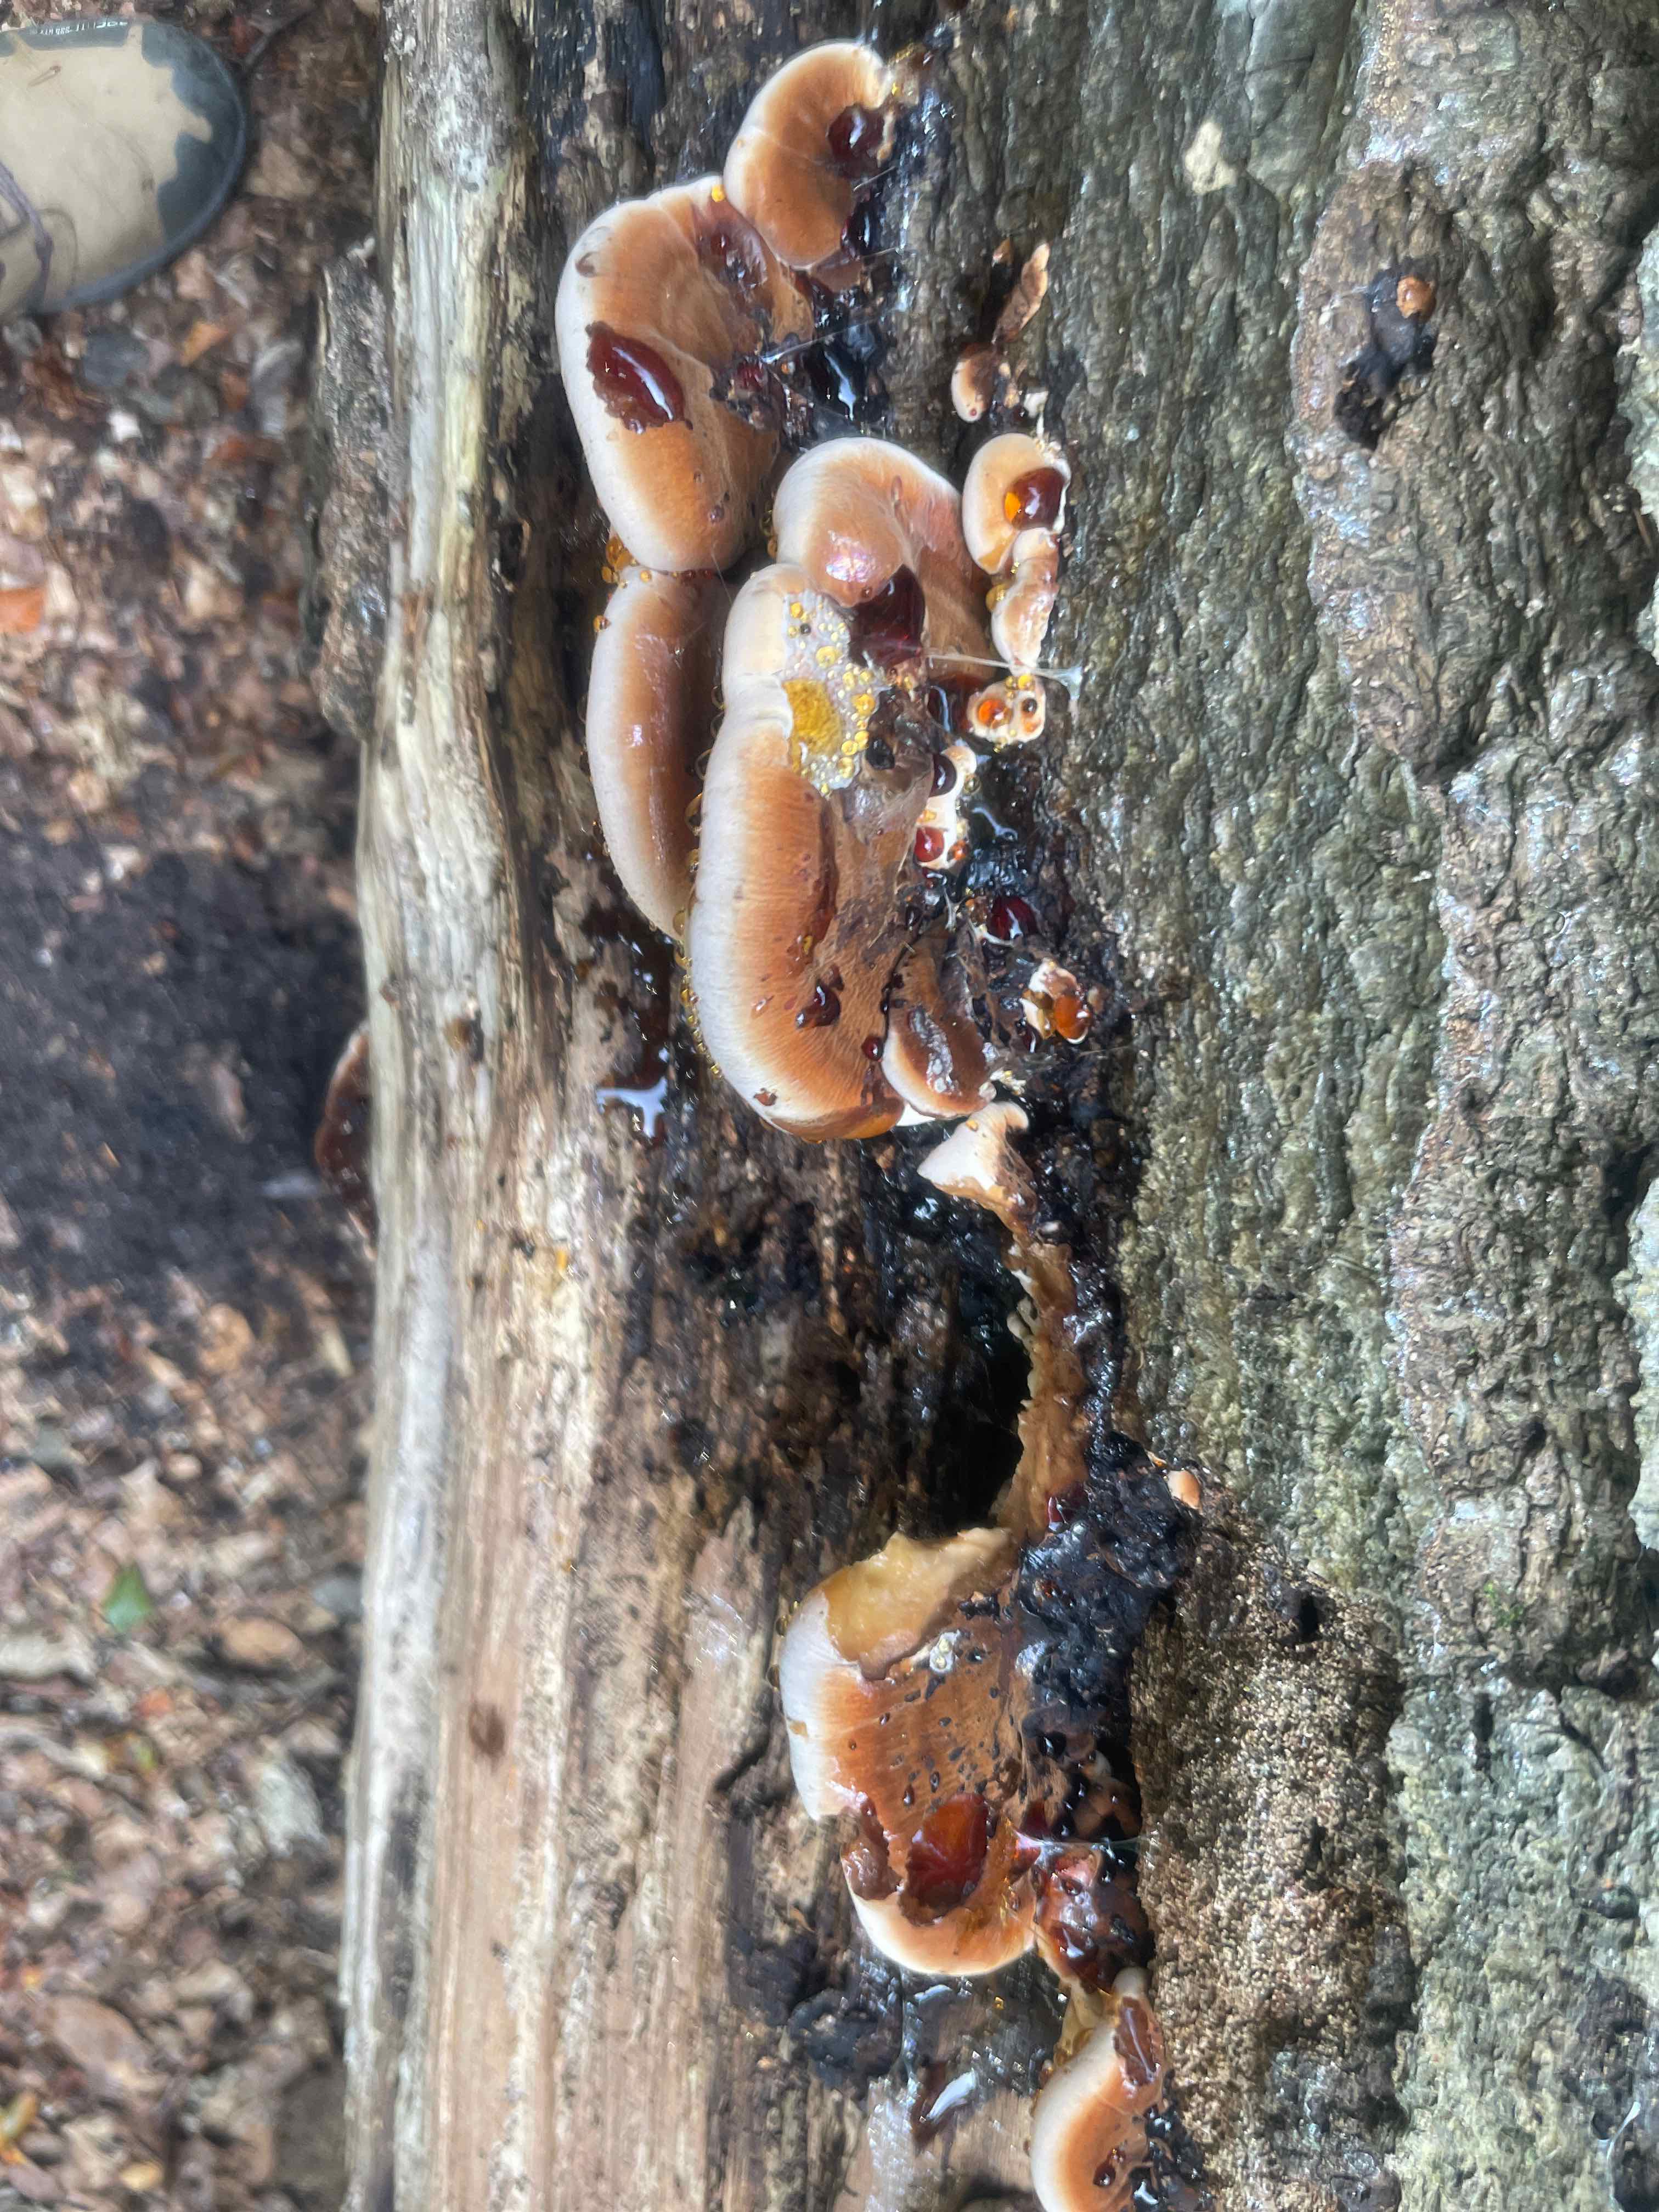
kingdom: Fungi
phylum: Basidiomycota
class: Agaricomycetes
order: Polyporales
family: Ischnodermataceae
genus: Ischnoderma
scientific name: Ischnoderma resinosum
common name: løv-tjæreporesvamp
